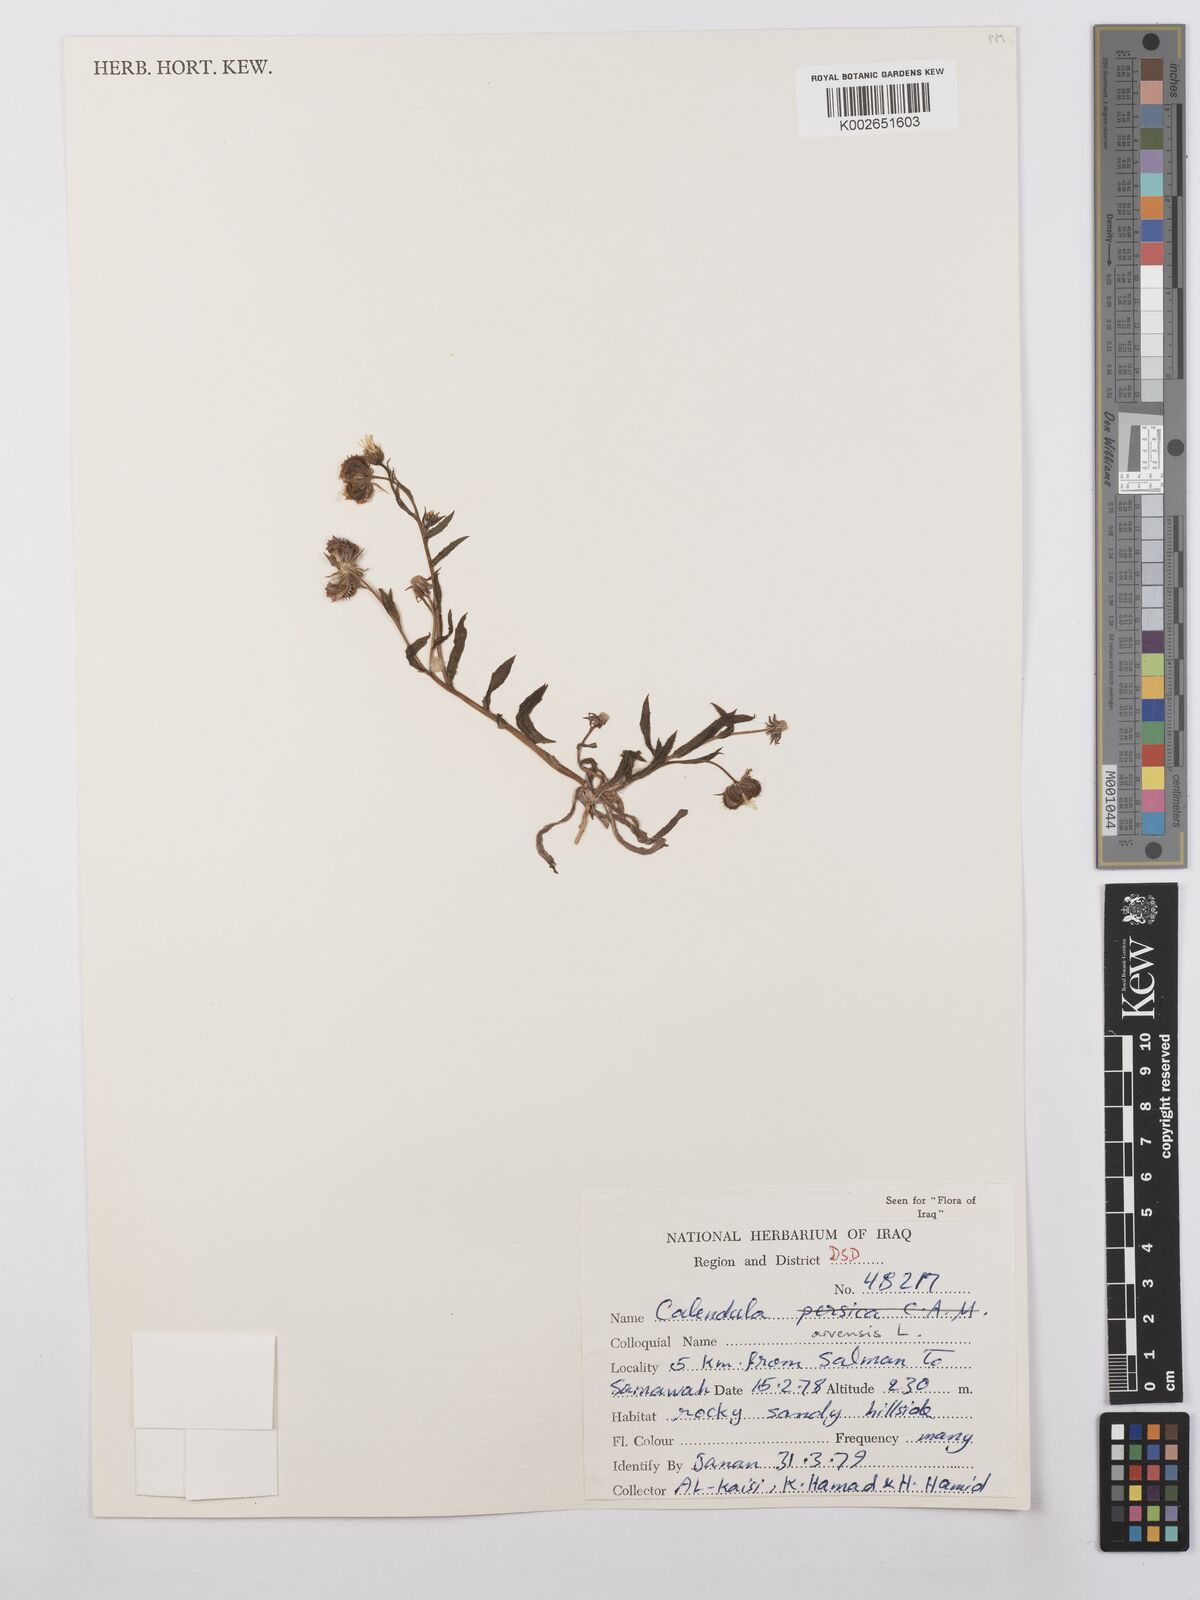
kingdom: Plantae
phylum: Tracheophyta
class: Magnoliopsida
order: Asterales
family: Asteraceae
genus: Calendula
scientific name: Calendula arvensis
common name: Field marigold
